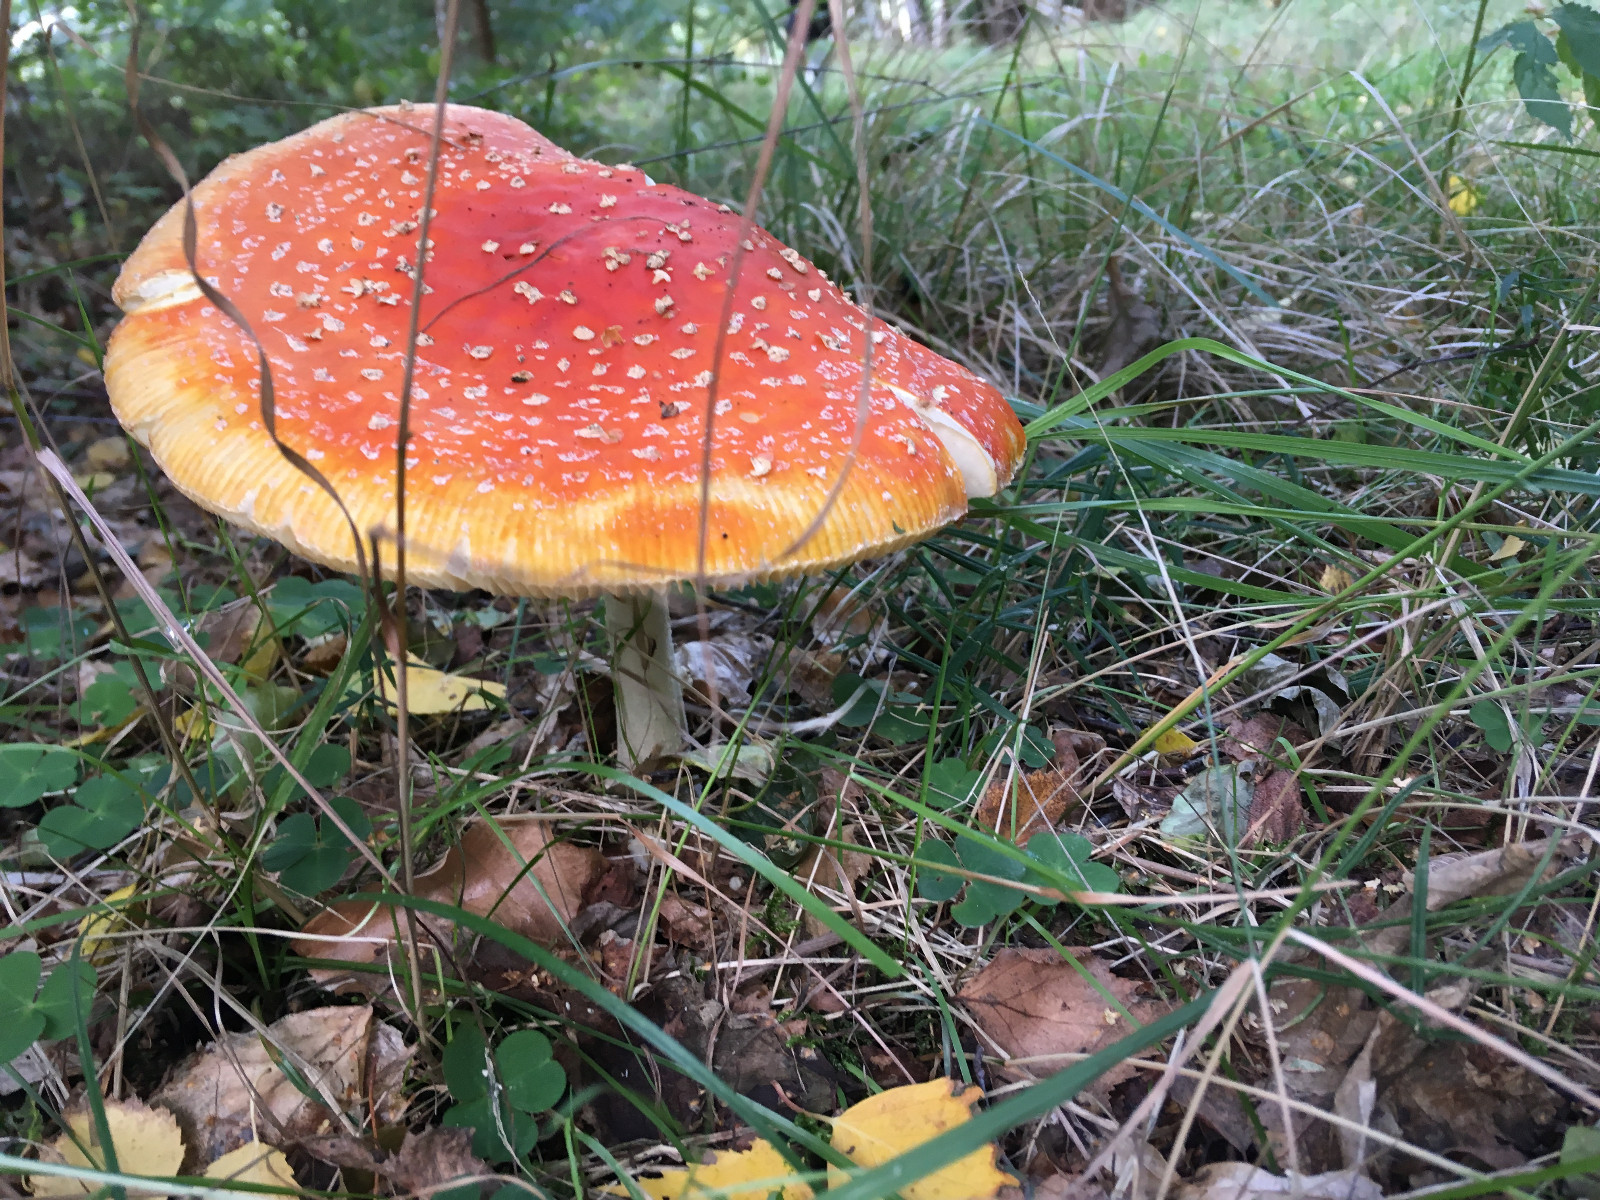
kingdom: Fungi
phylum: Basidiomycota
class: Agaricomycetes
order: Agaricales
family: Amanitaceae
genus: Amanita
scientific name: Amanita muscaria
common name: rød fluesvamp
